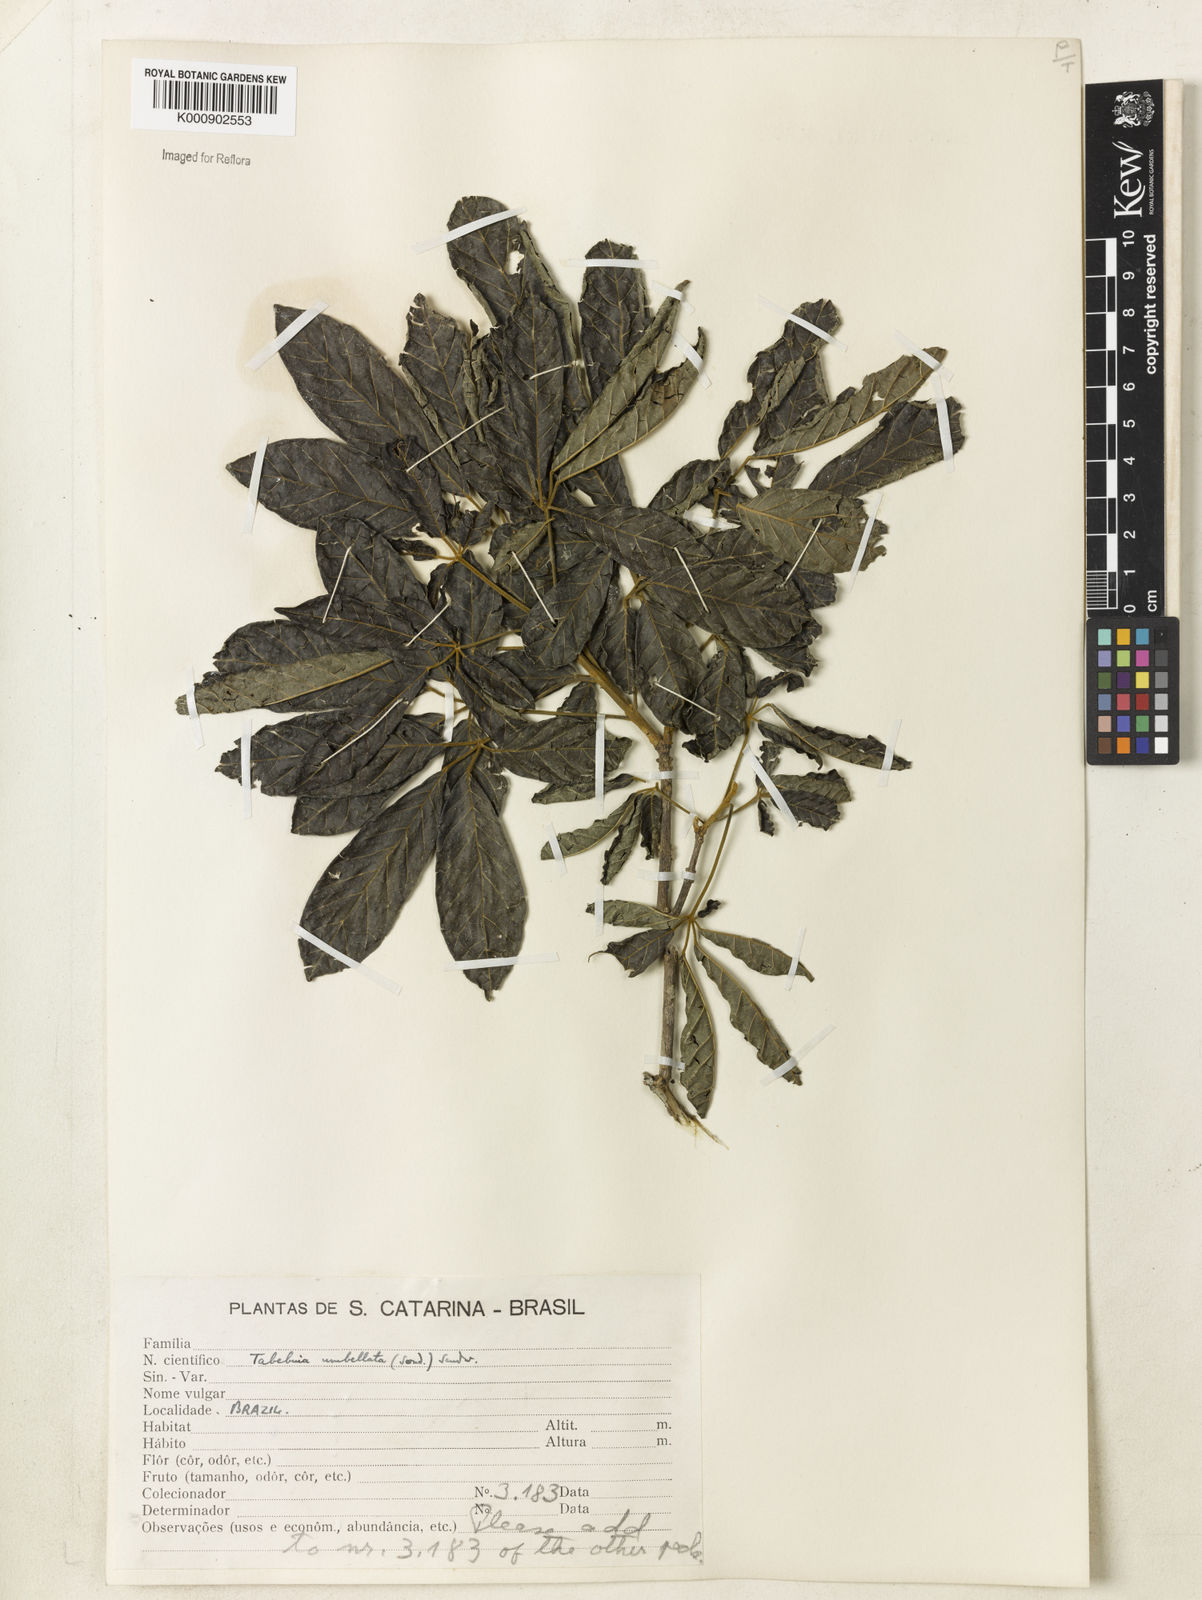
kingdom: Plantae
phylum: Tracheophyta
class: Magnoliopsida
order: Lamiales
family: Bignoniaceae
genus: Handroanthus
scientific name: Handroanthus umbellatus
